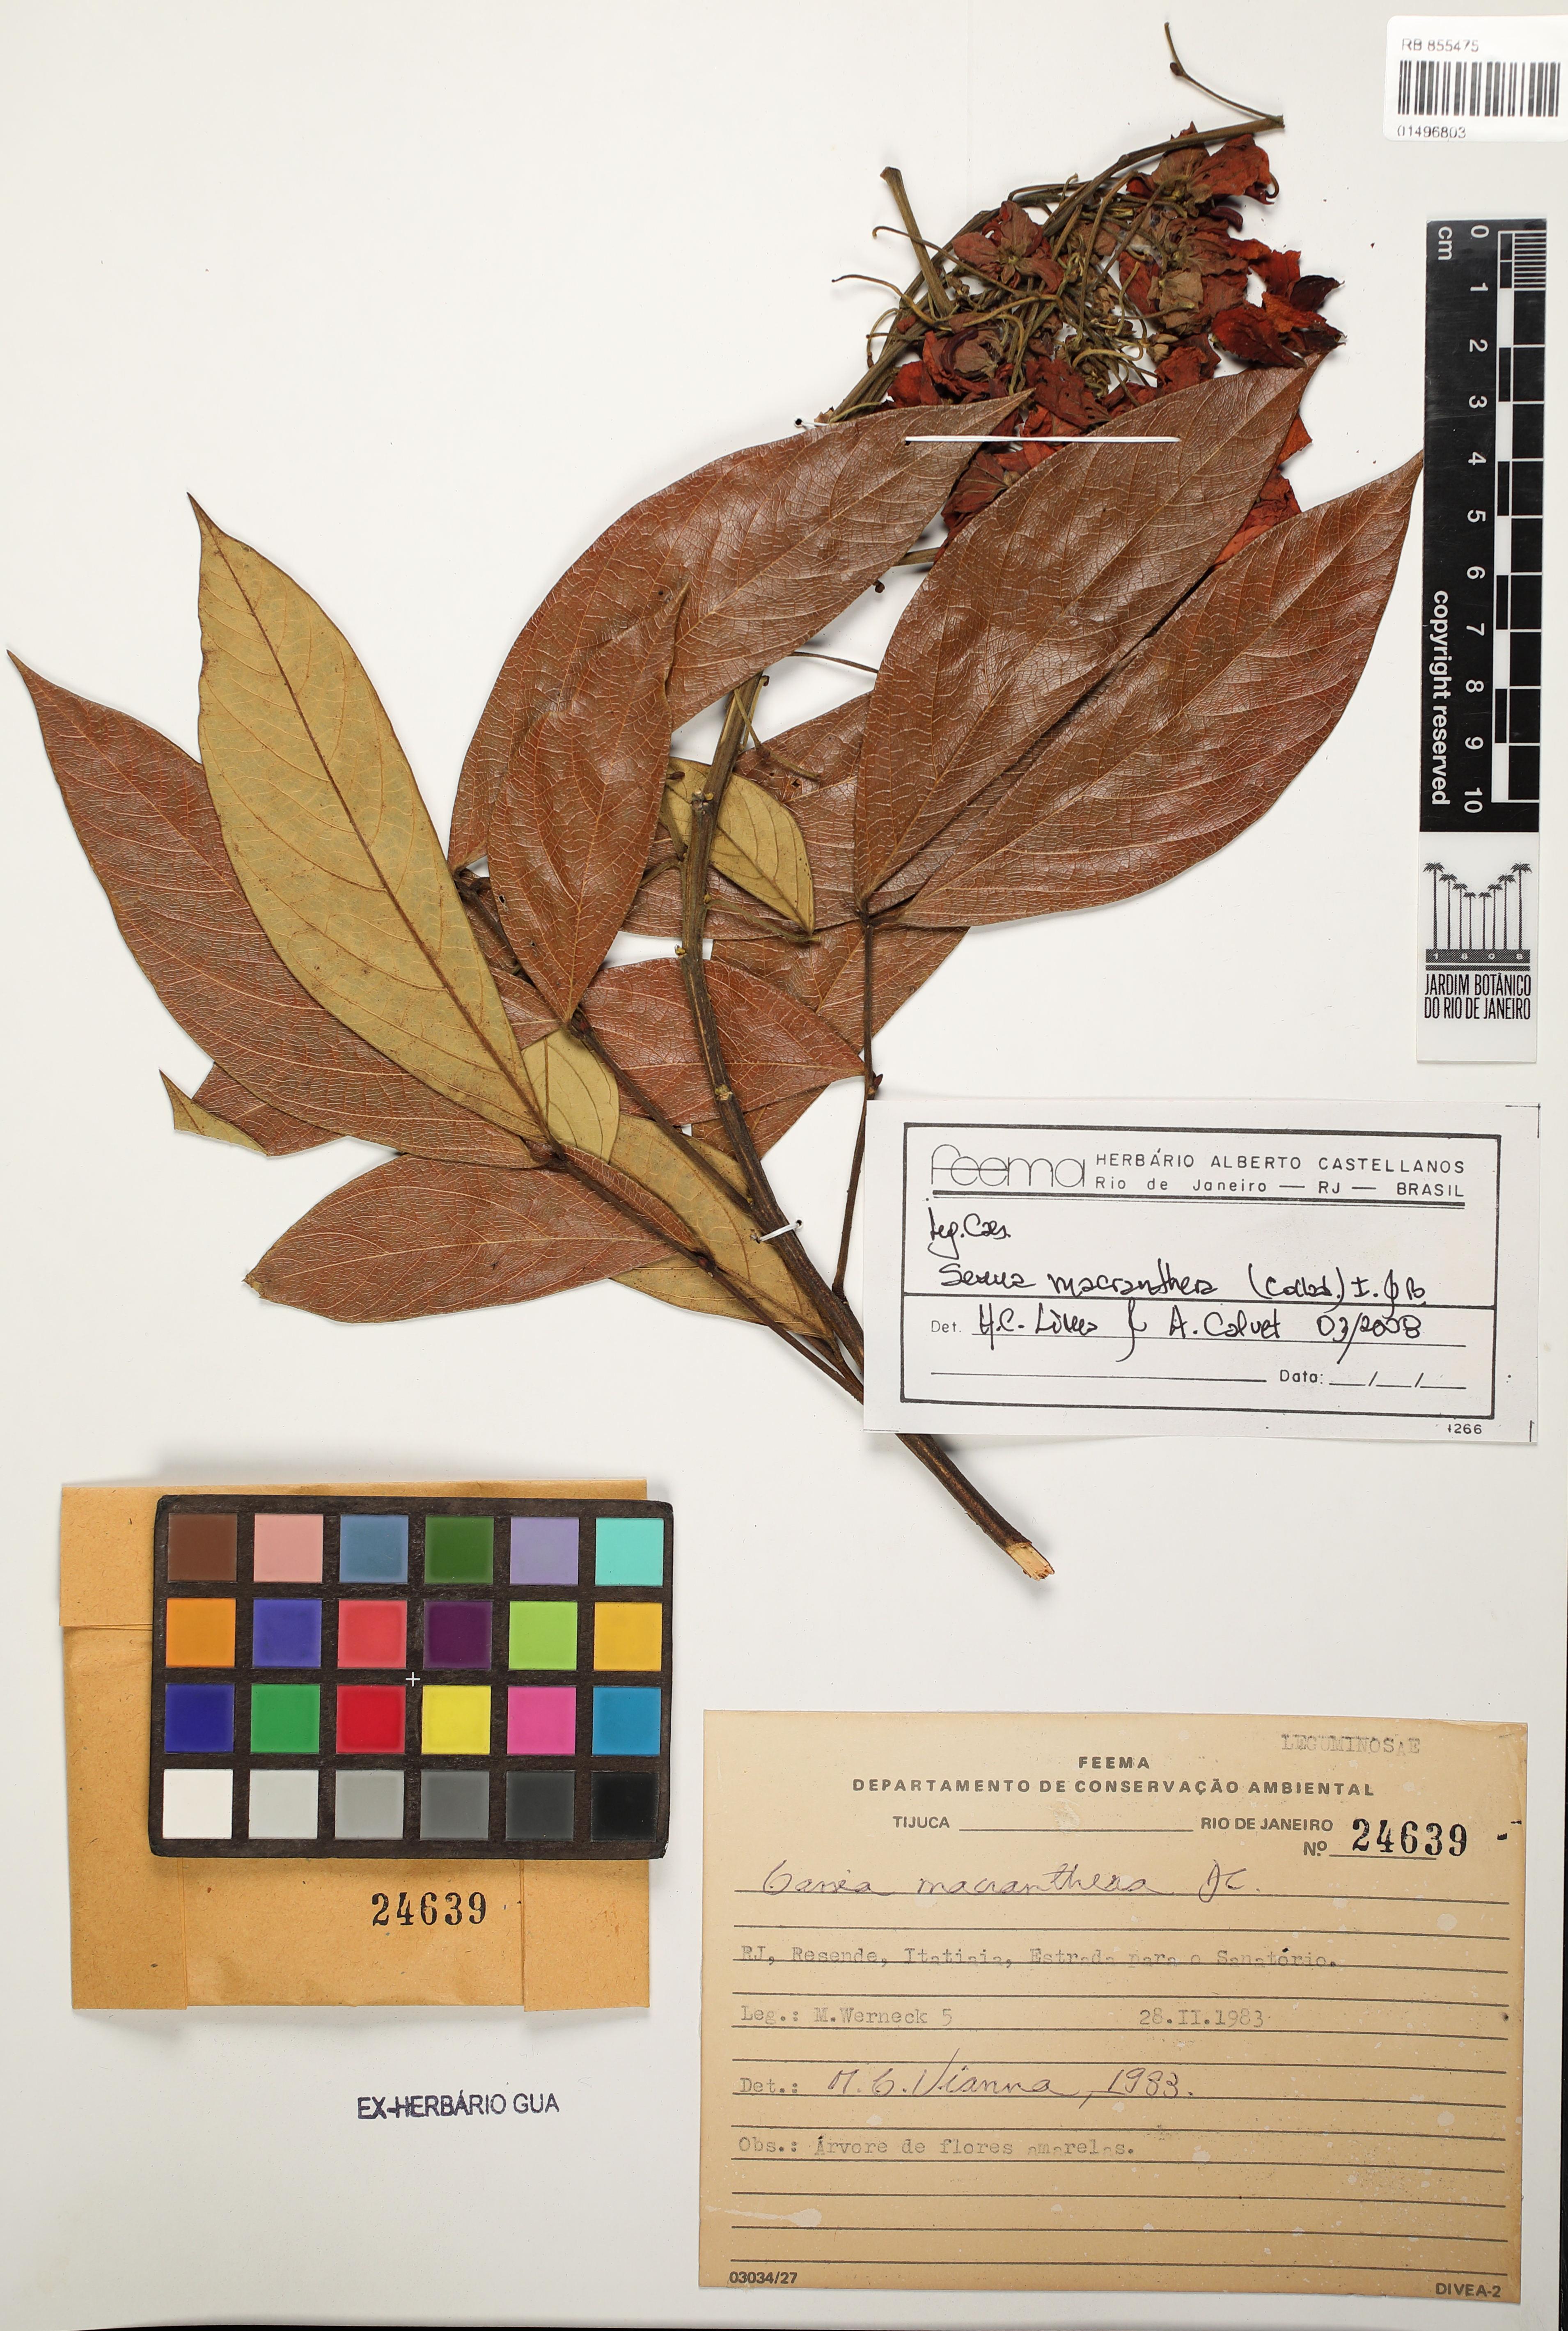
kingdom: Plantae
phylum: Tracheophyta
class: Magnoliopsida
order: Fabales
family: Fabaceae
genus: Senna
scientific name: Senna macranthera
